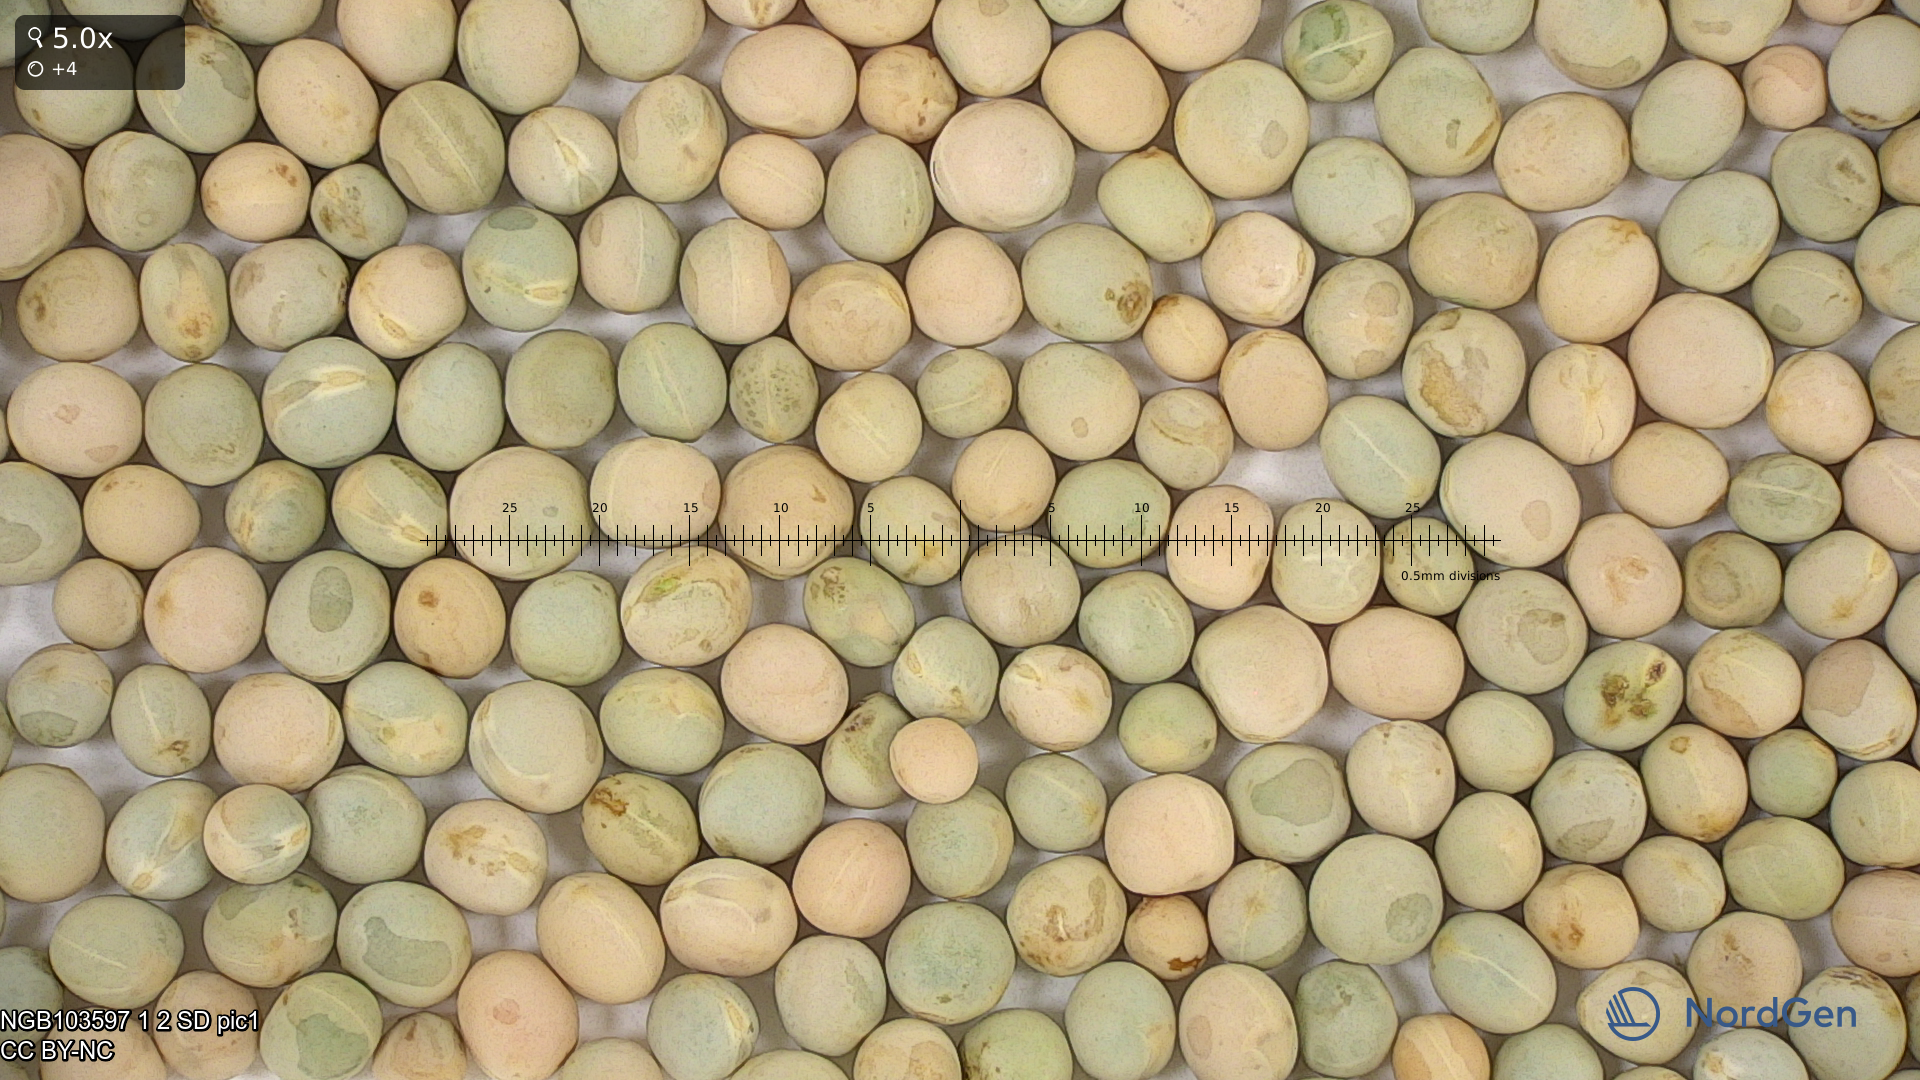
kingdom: Plantae
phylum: Tracheophyta
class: Magnoliopsida
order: Fabales
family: Fabaceae
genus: Lathyrus
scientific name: Lathyrus oleraceus
